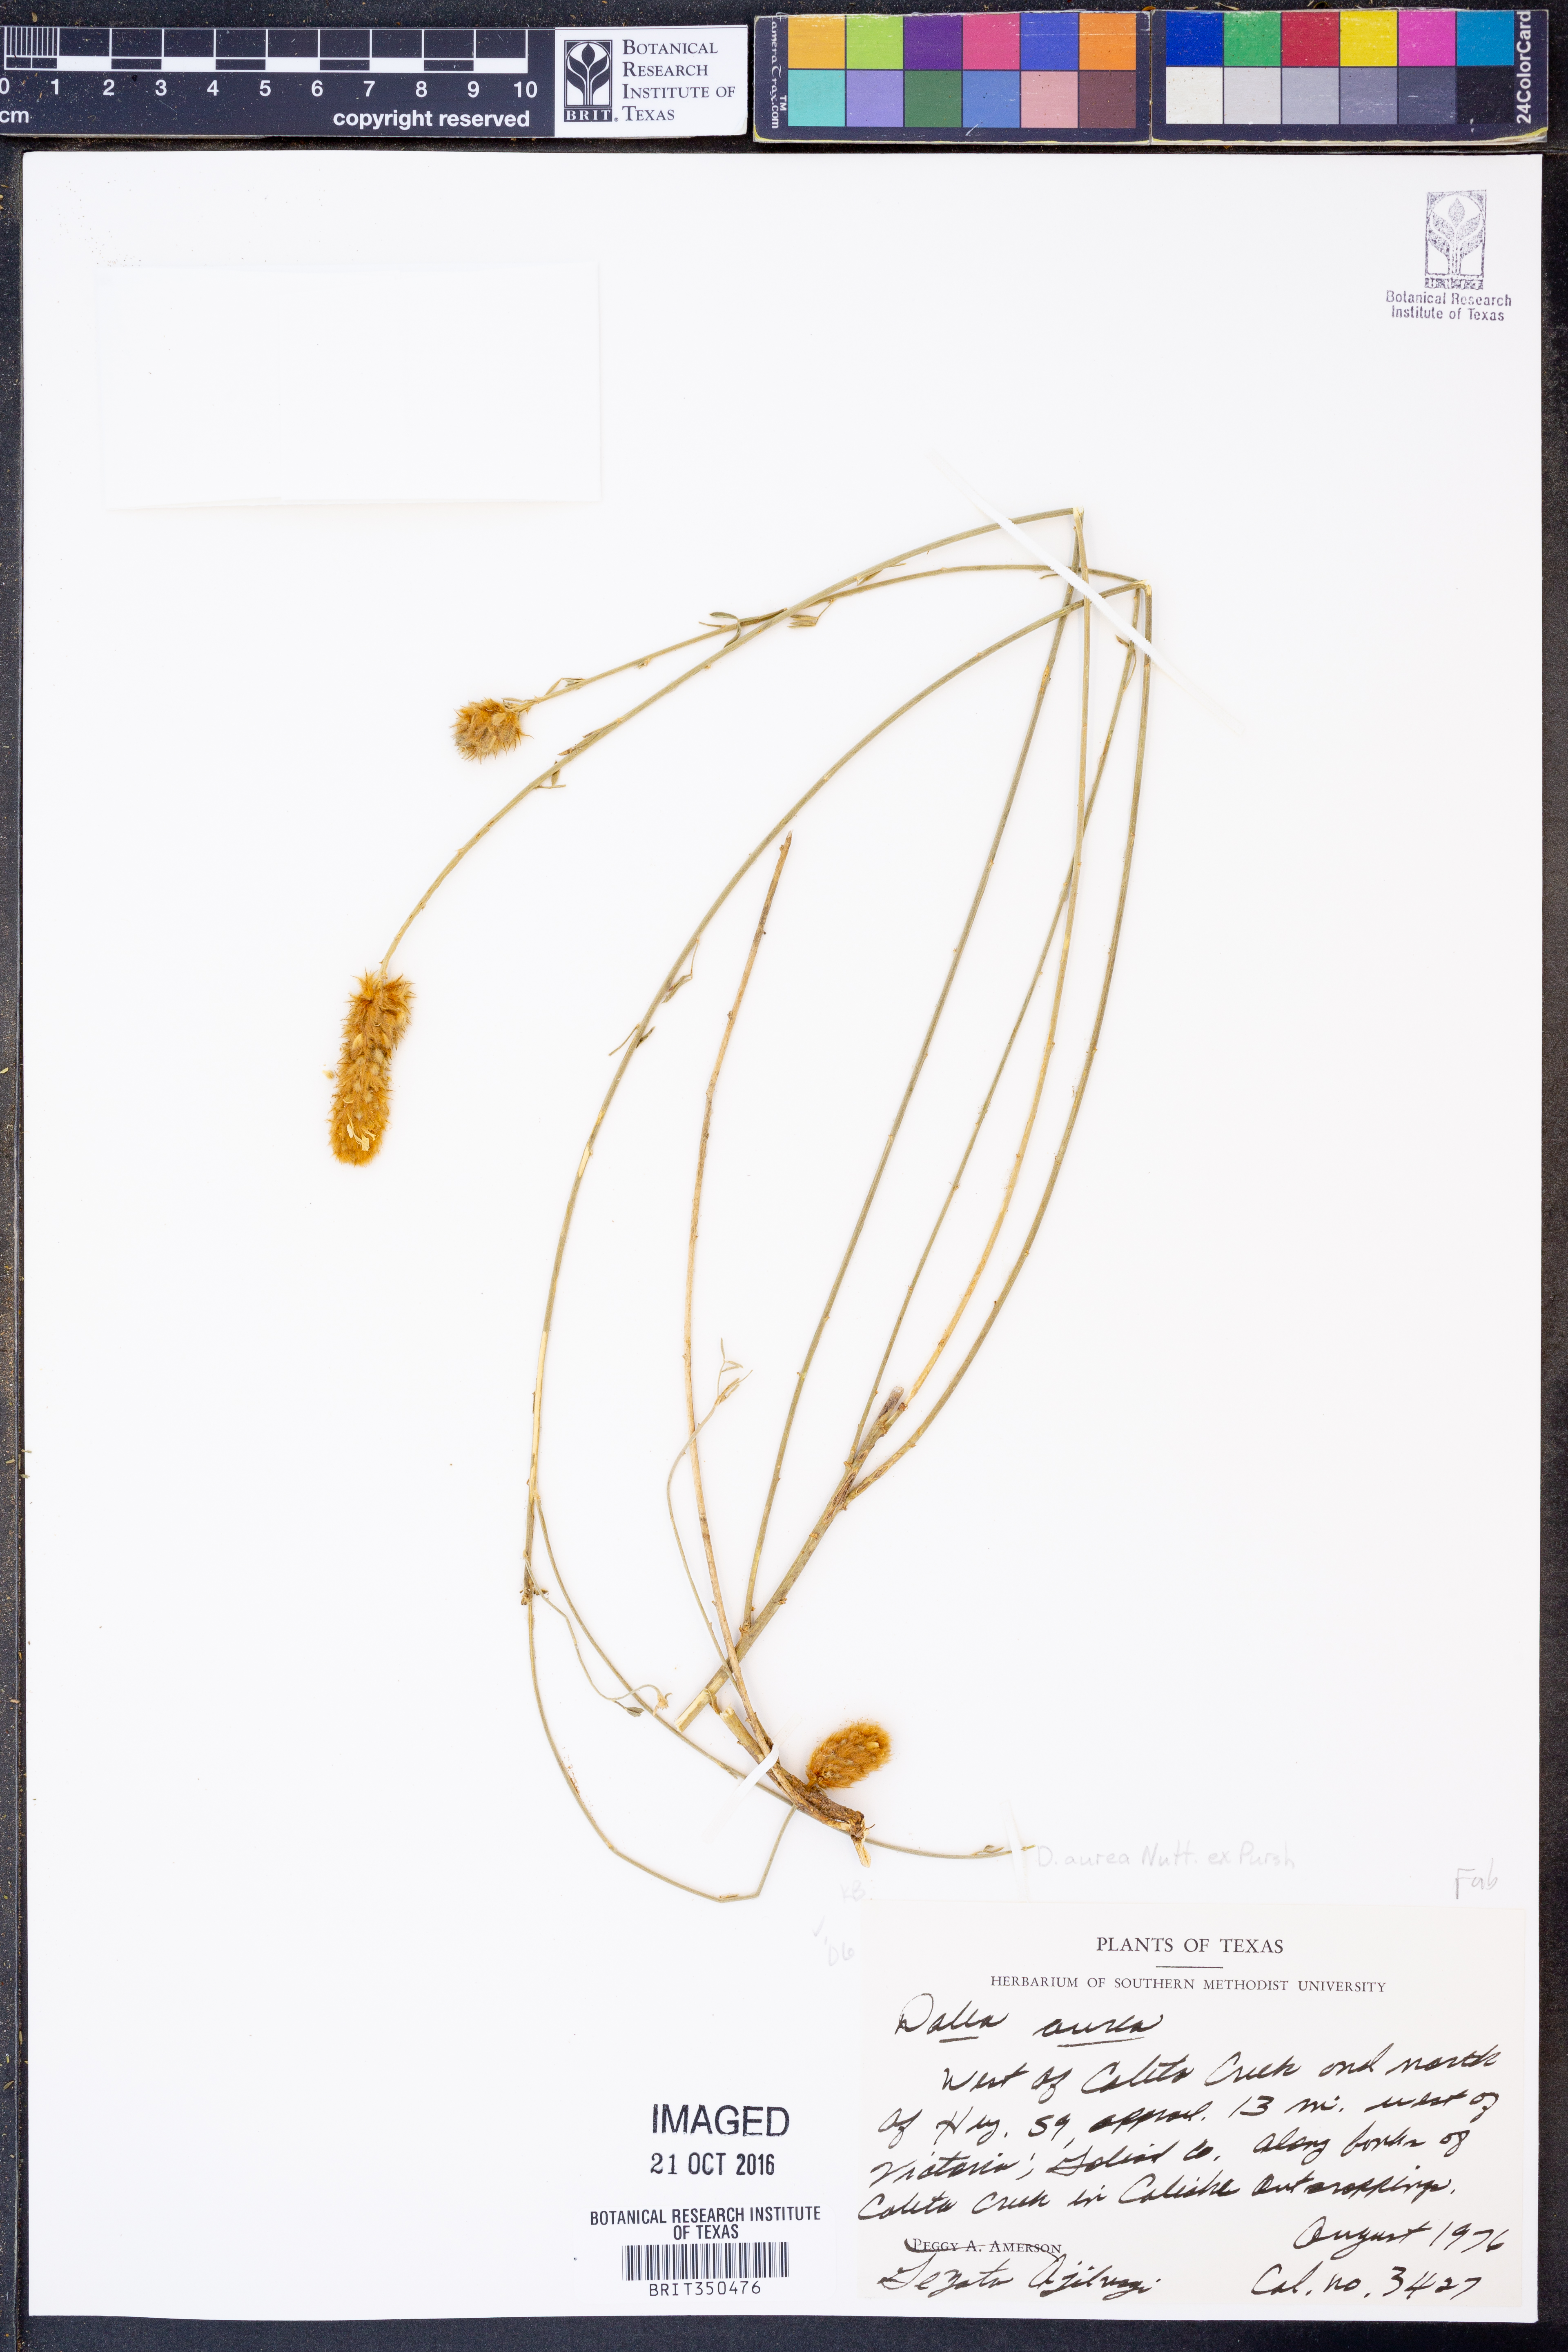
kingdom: Plantae
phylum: Tracheophyta
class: Magnoliopsida
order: Fabales
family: Fabaceae
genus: Dalea
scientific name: Dalea aurea
